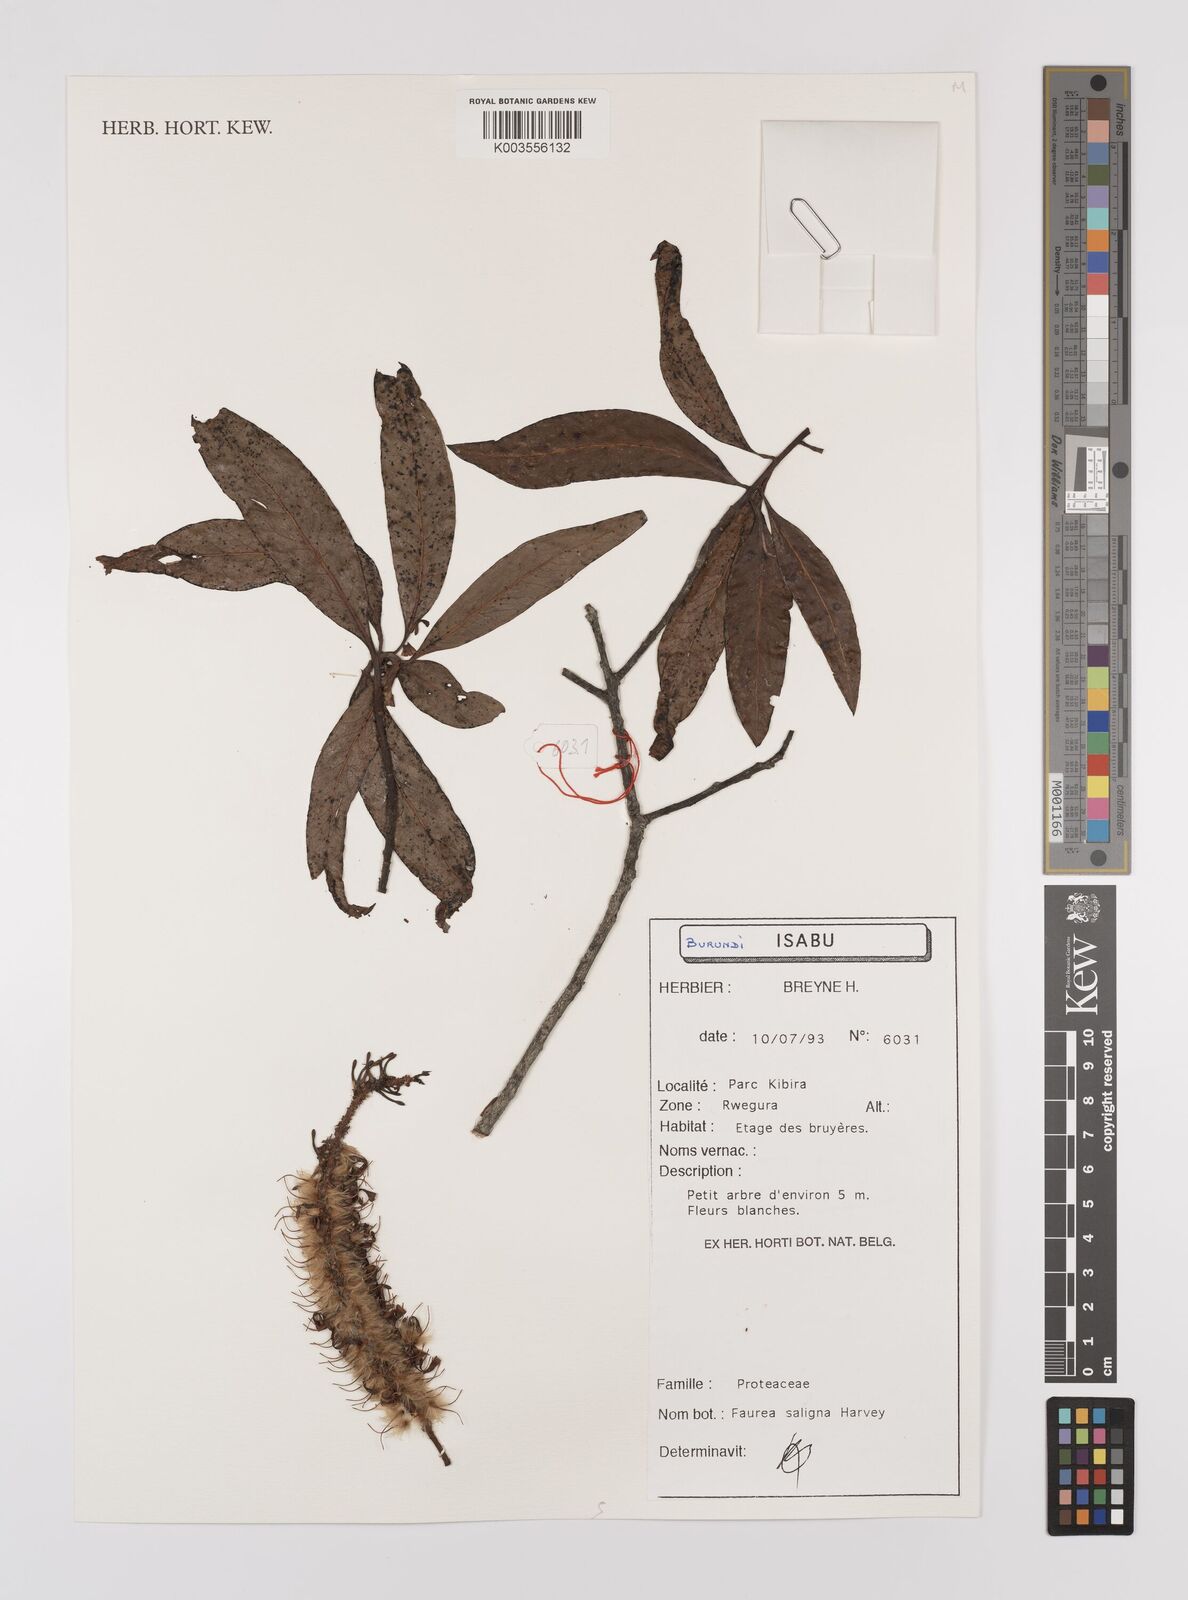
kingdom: Plantae
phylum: Tracheophyta
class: Magnoliopsida
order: Proteales
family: Proteaceae
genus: Faurea
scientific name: Faurea saligna
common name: African bean
